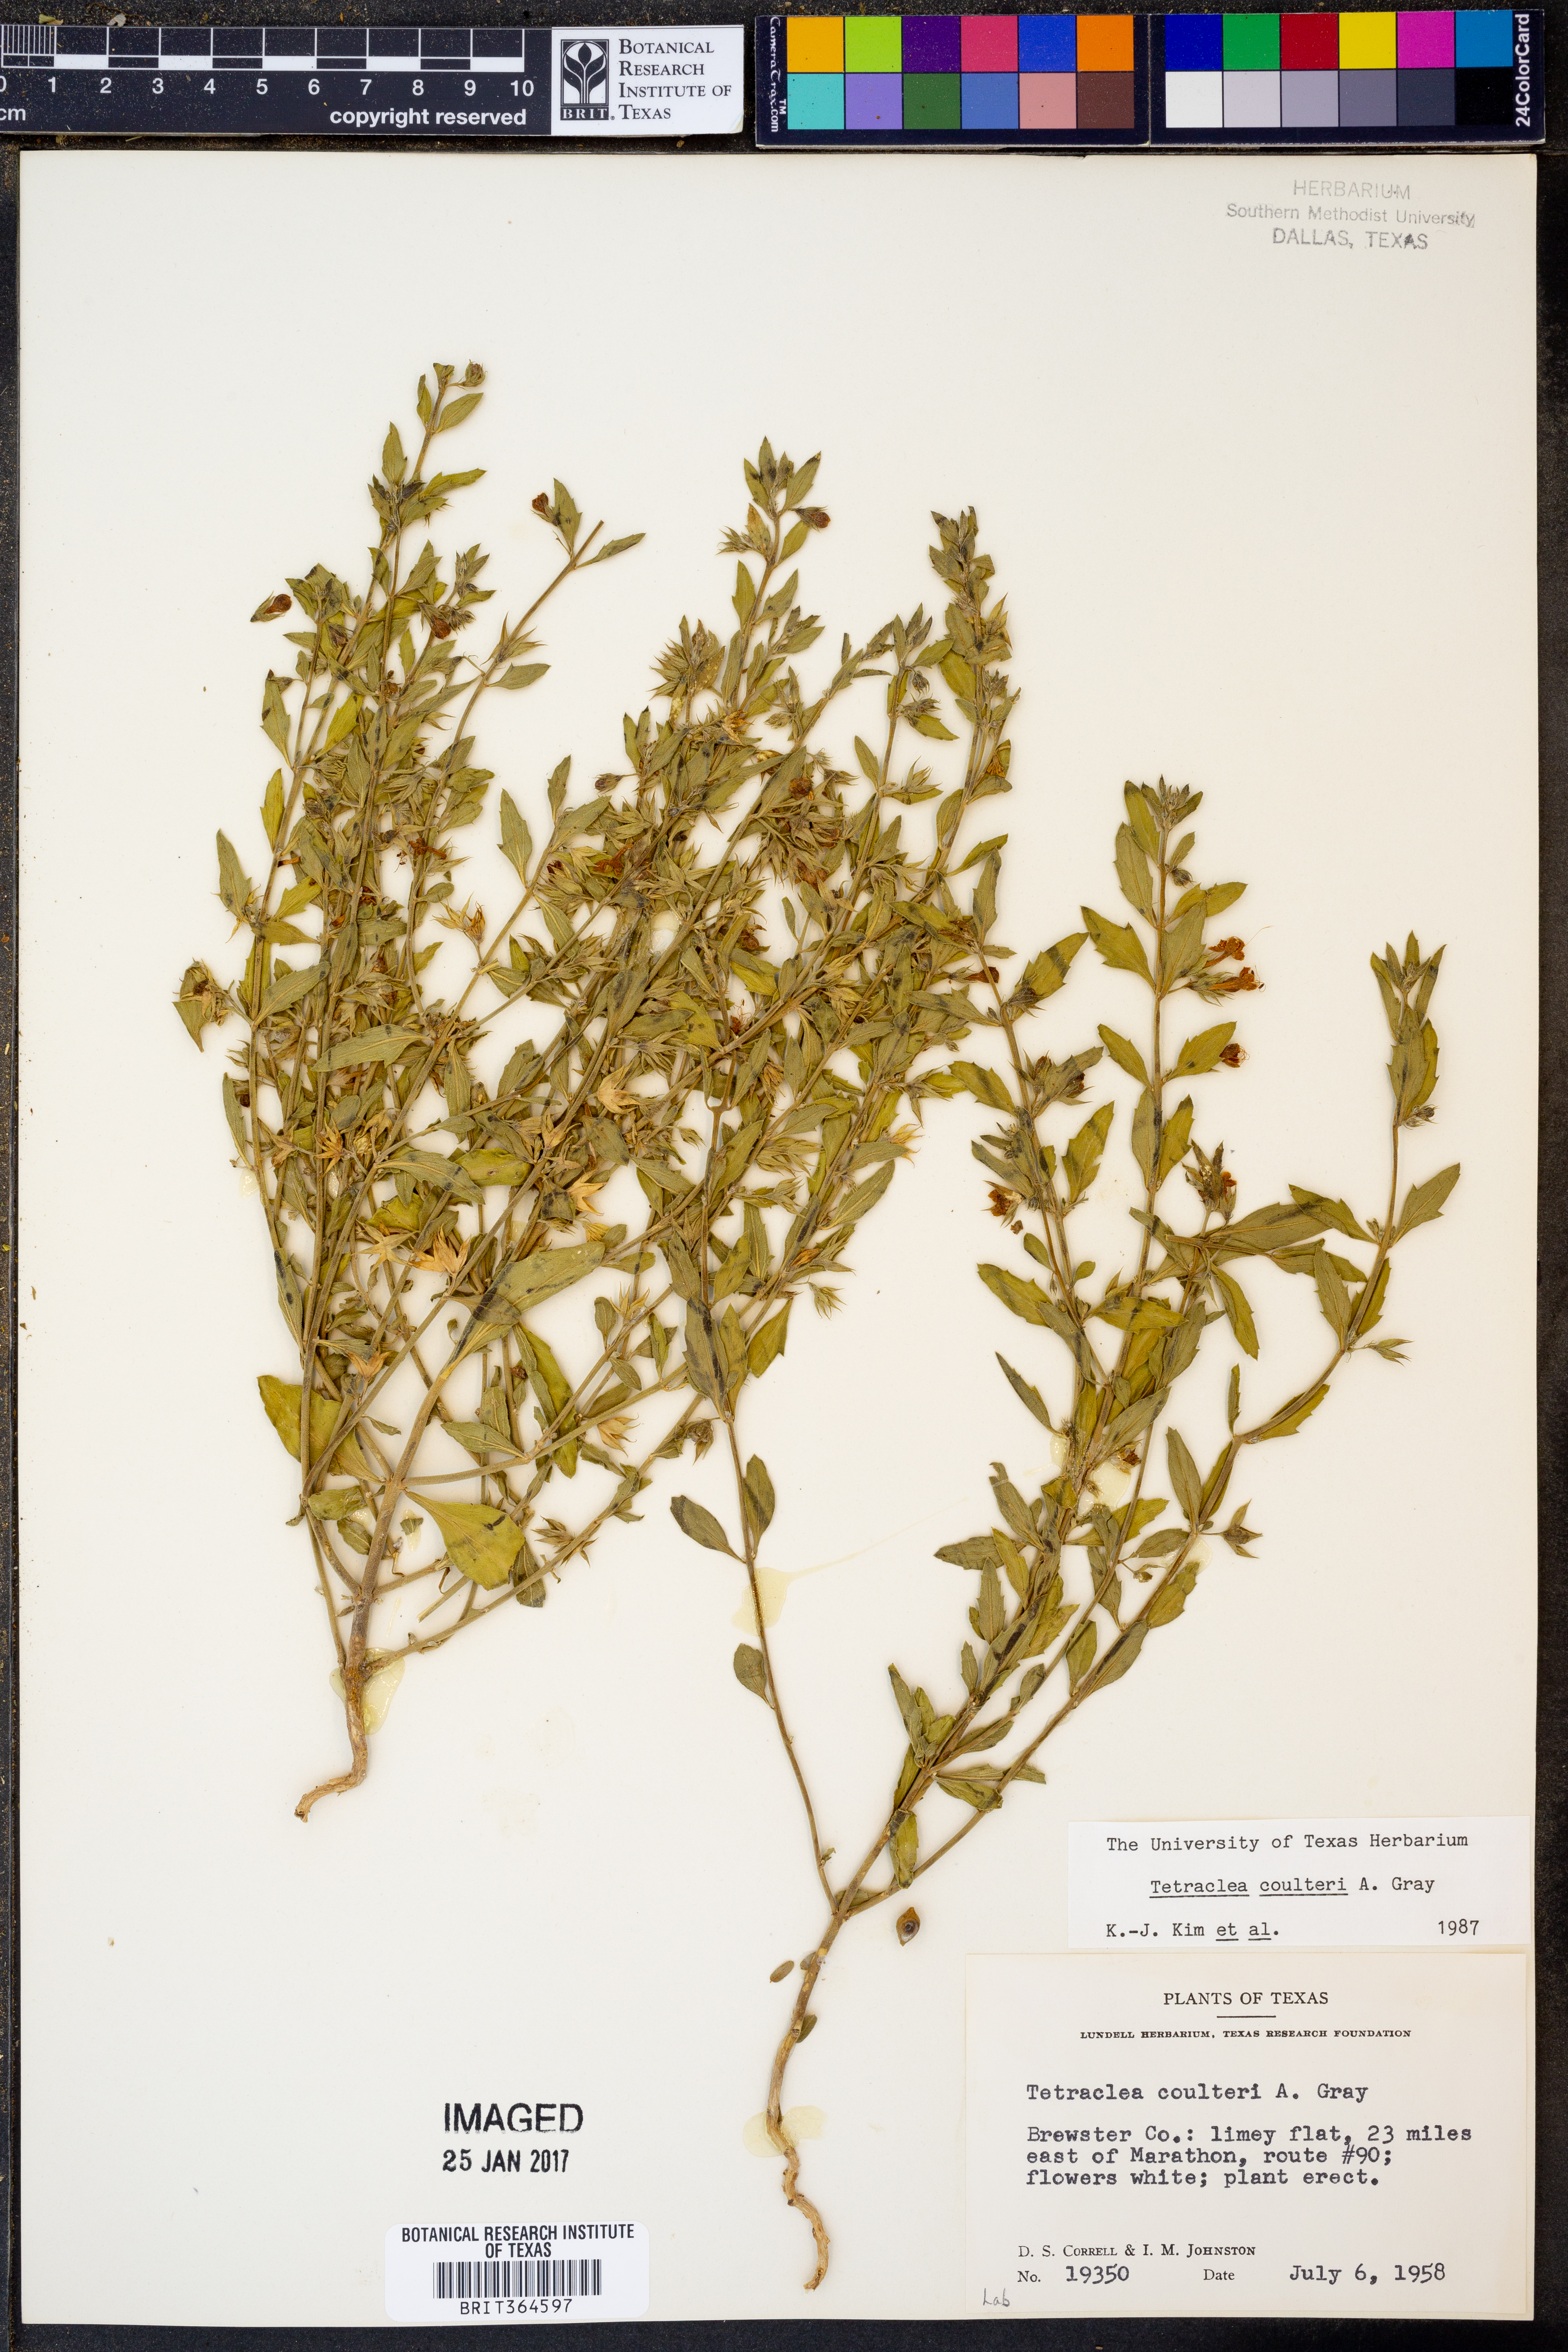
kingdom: Plantae
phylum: Tracheophyta
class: Magnoliopsida
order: Lamiales
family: Lamiaceae
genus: Tetraclea
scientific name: Tetraclea coulteri
